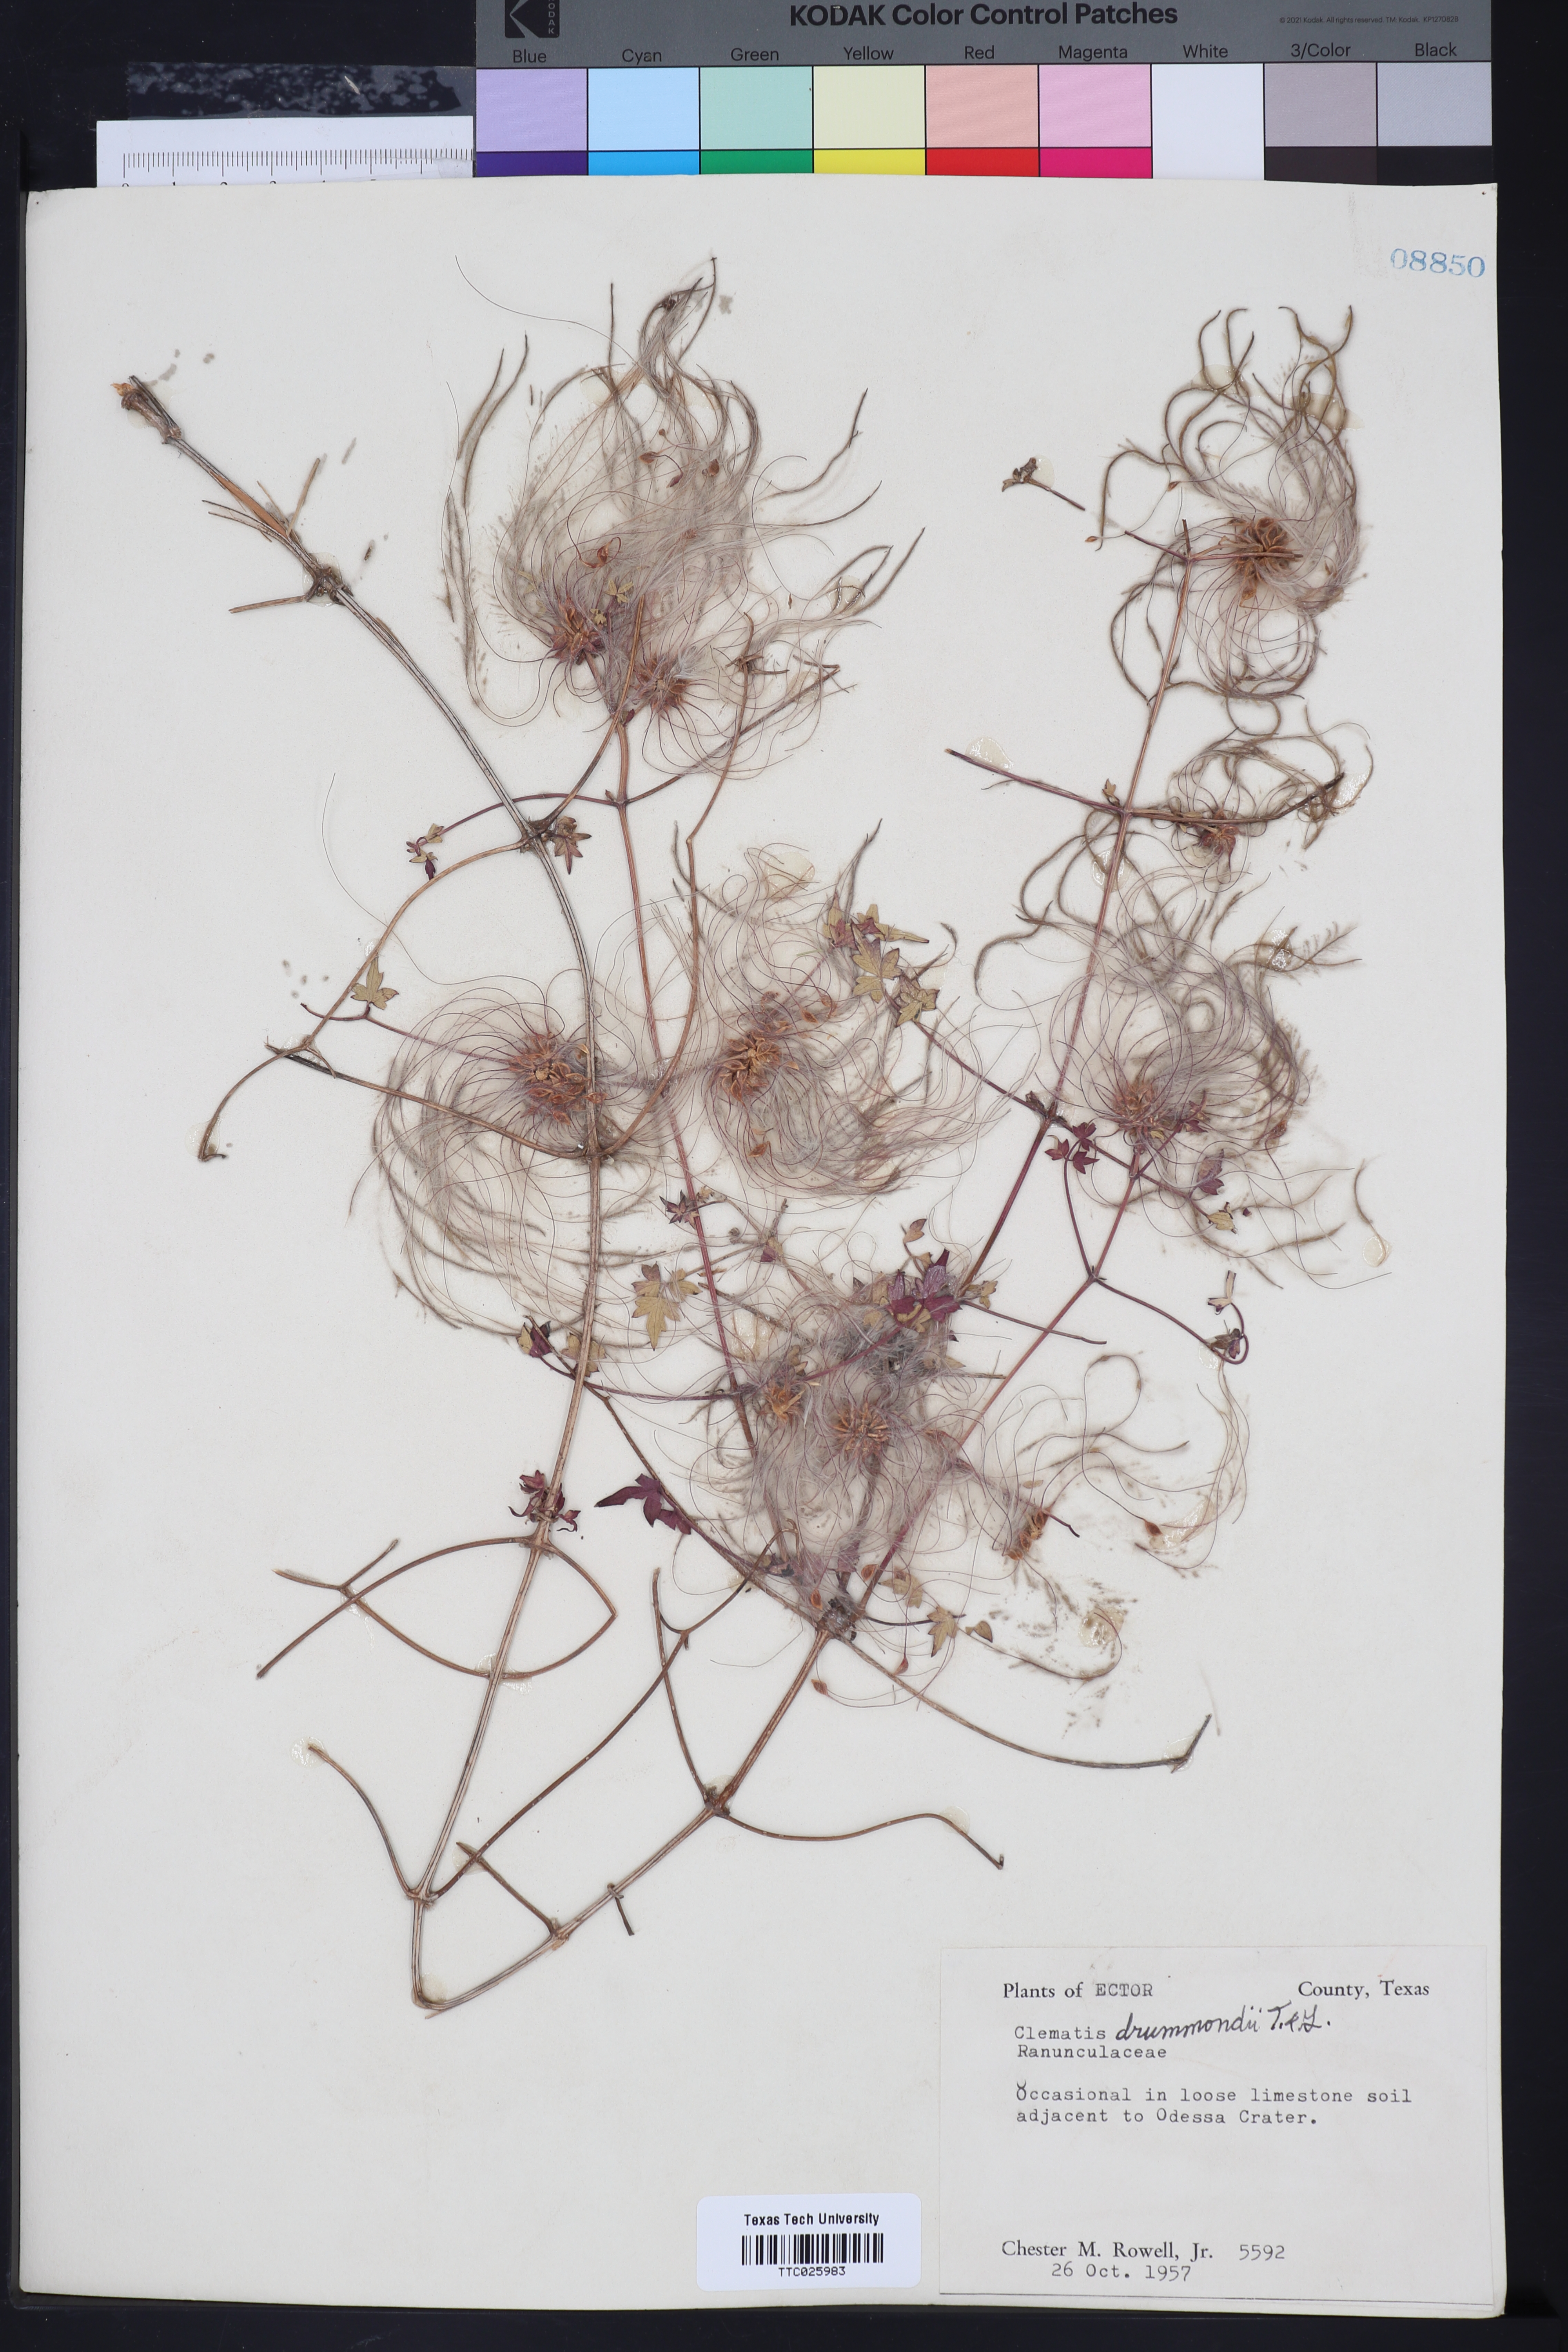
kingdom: Plantae
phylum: Tracheophyta
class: Magnoliopsida
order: Ranunculales
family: Ranunculaceae
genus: Clematis
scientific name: Clematis drummondii
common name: Texas virgin's bower
